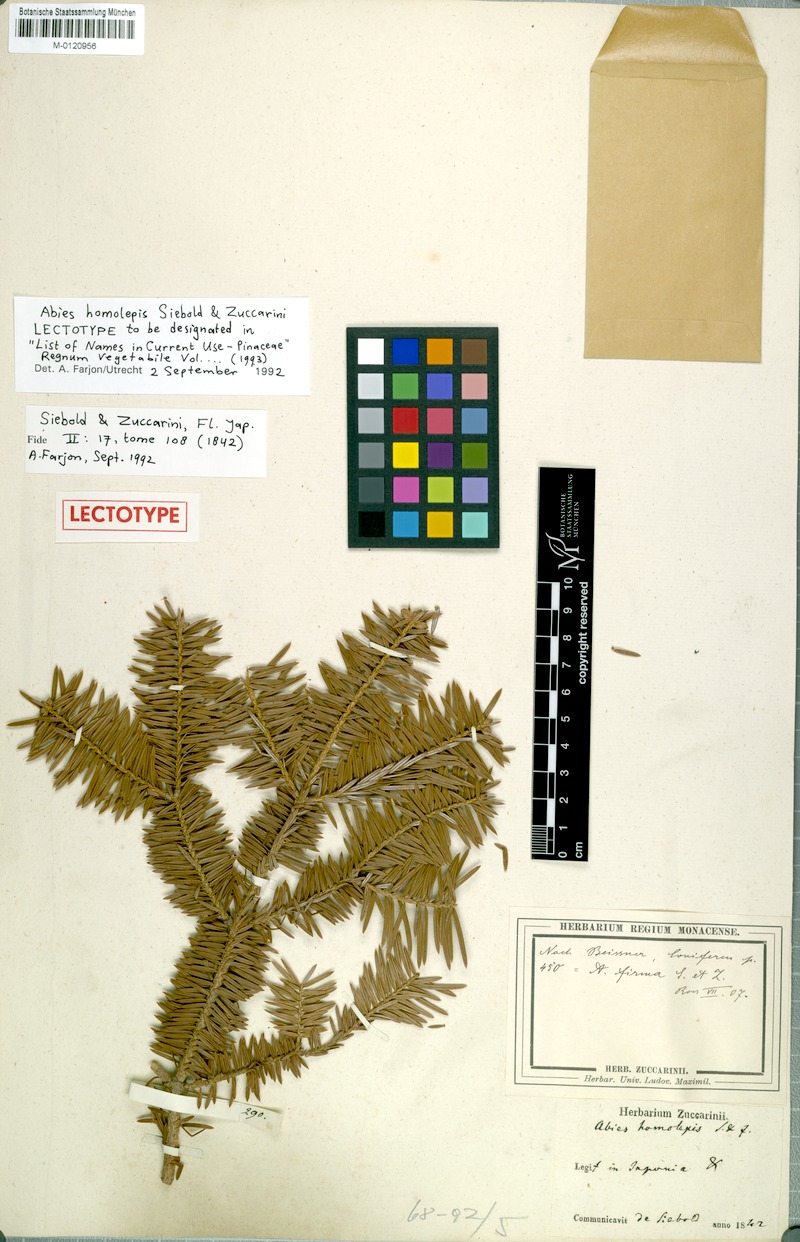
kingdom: Plantae
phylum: Tracheophyta
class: Pinopsida
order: Pinales
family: Pinaceae
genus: Abies
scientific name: Abies homolepis
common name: Nikko fir
